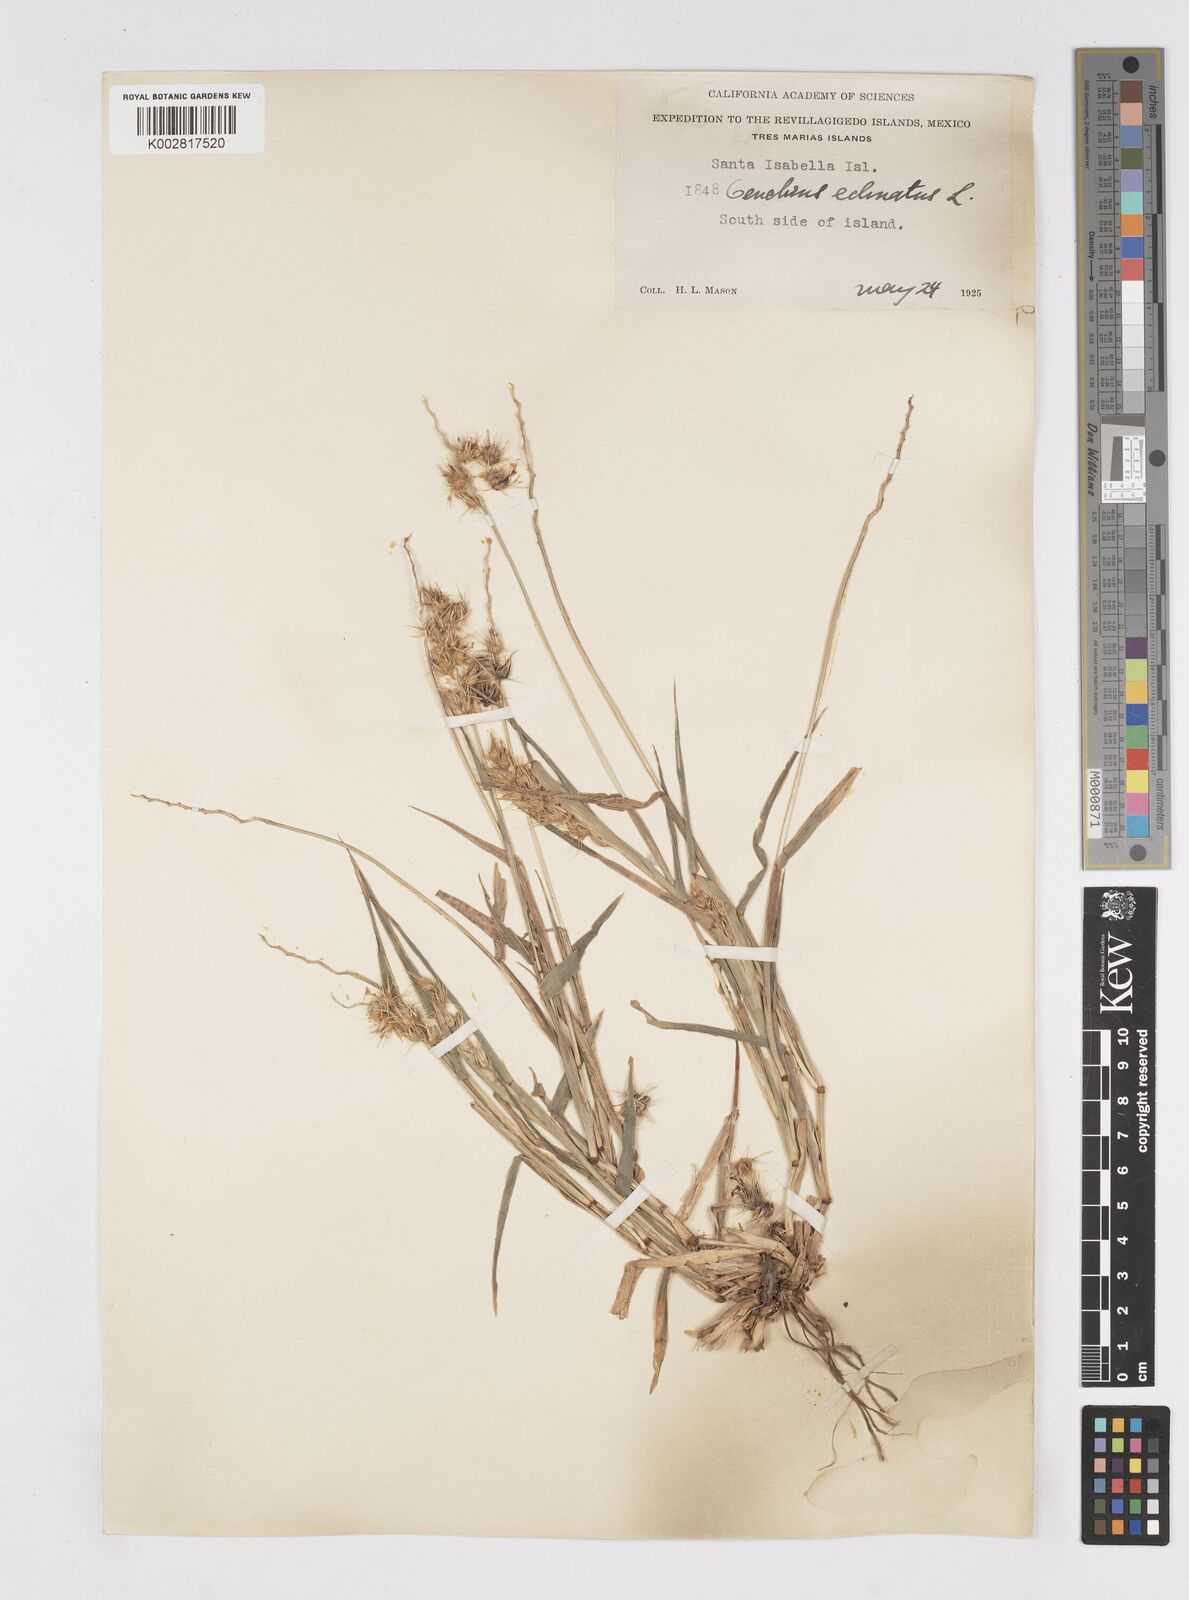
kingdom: Plantae
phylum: Tracheophyta
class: Liliopsida
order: Poales
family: Poaceae
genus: Cenchrus
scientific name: Cenchrus
